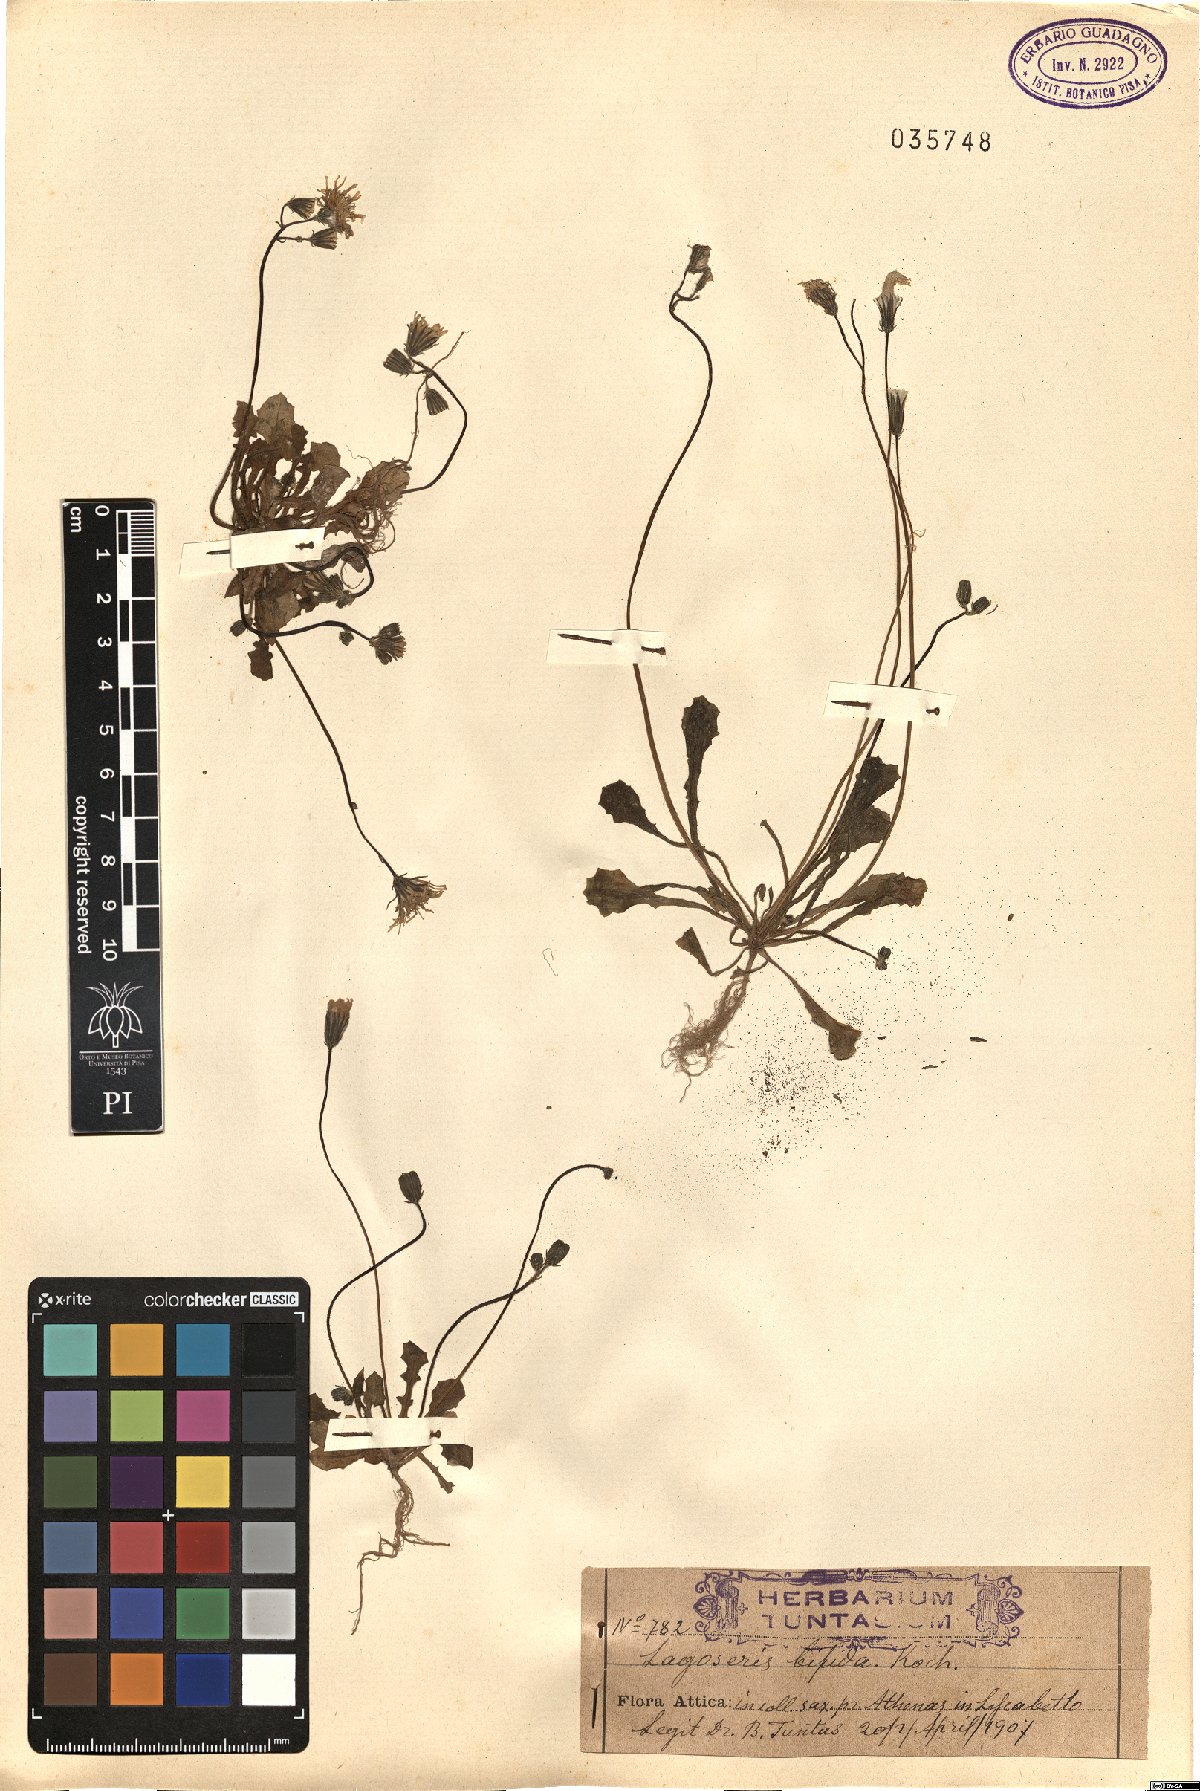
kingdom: Plantae
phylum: Tracheophyta
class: Magnoliopsida
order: Asterales
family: Asteraceae
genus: Crepis
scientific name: Crepis sancta
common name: Hawk's-beard
